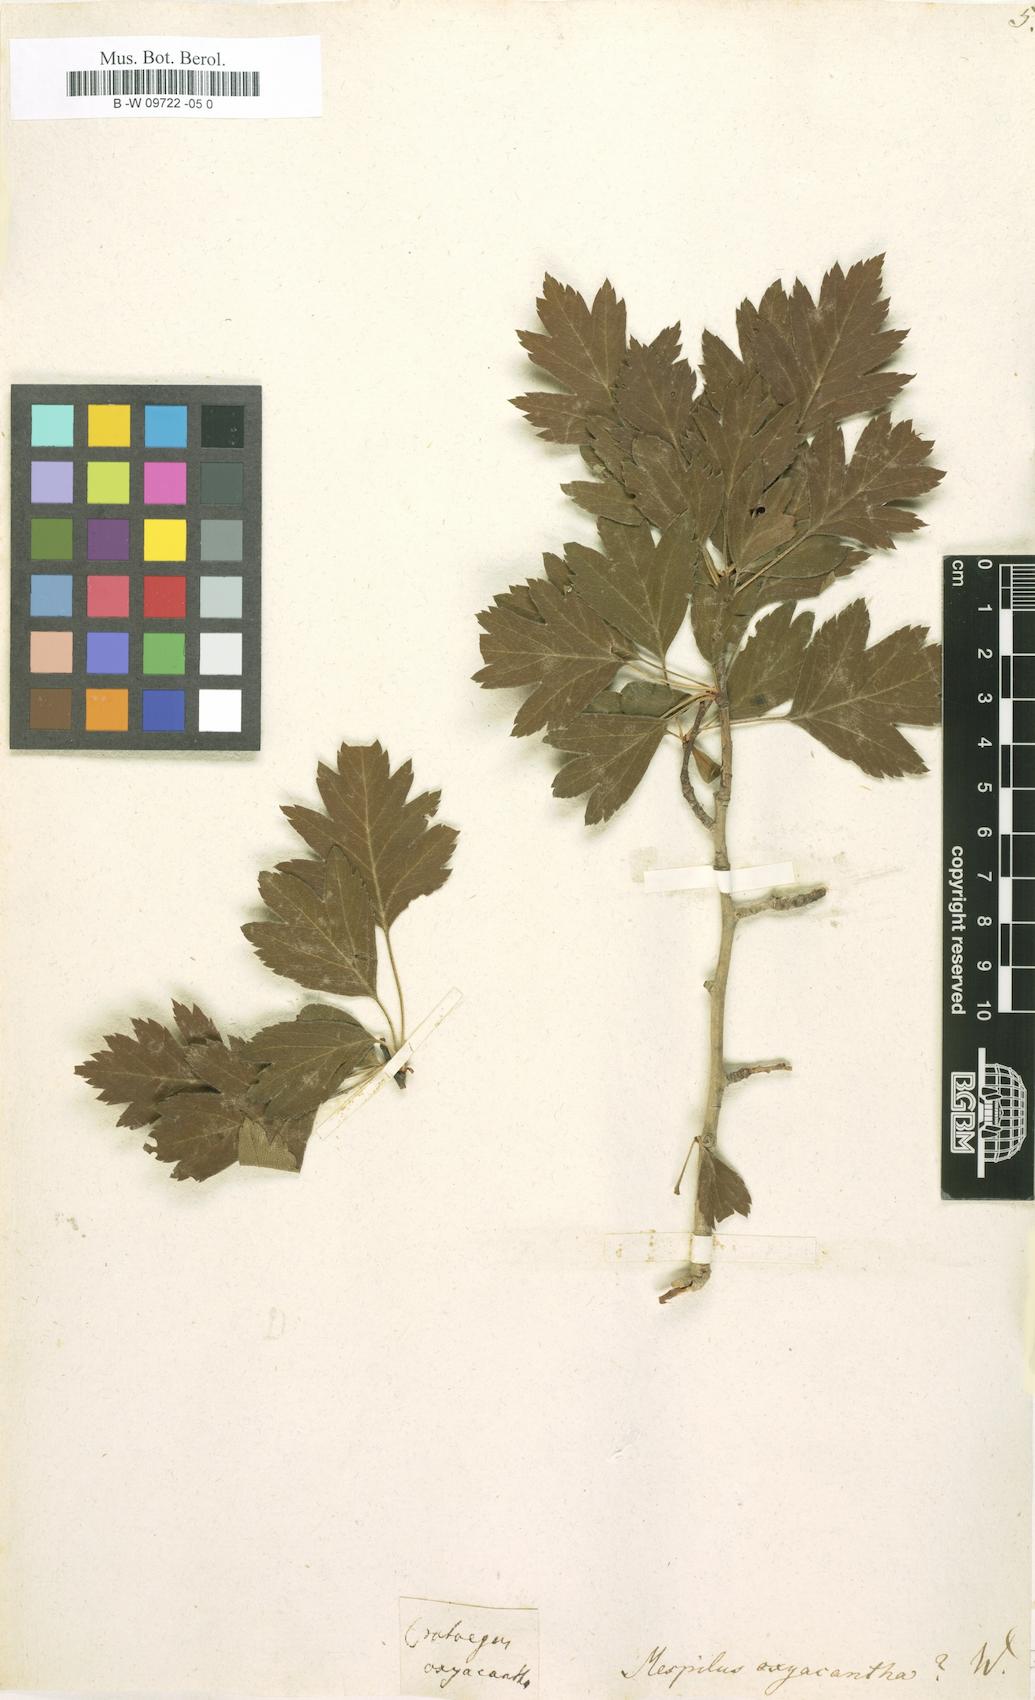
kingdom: Plantae
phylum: Tracheophyta
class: Magnoliopsida
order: Rosales
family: Rosaceae
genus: Crataegus
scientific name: Crataegus
